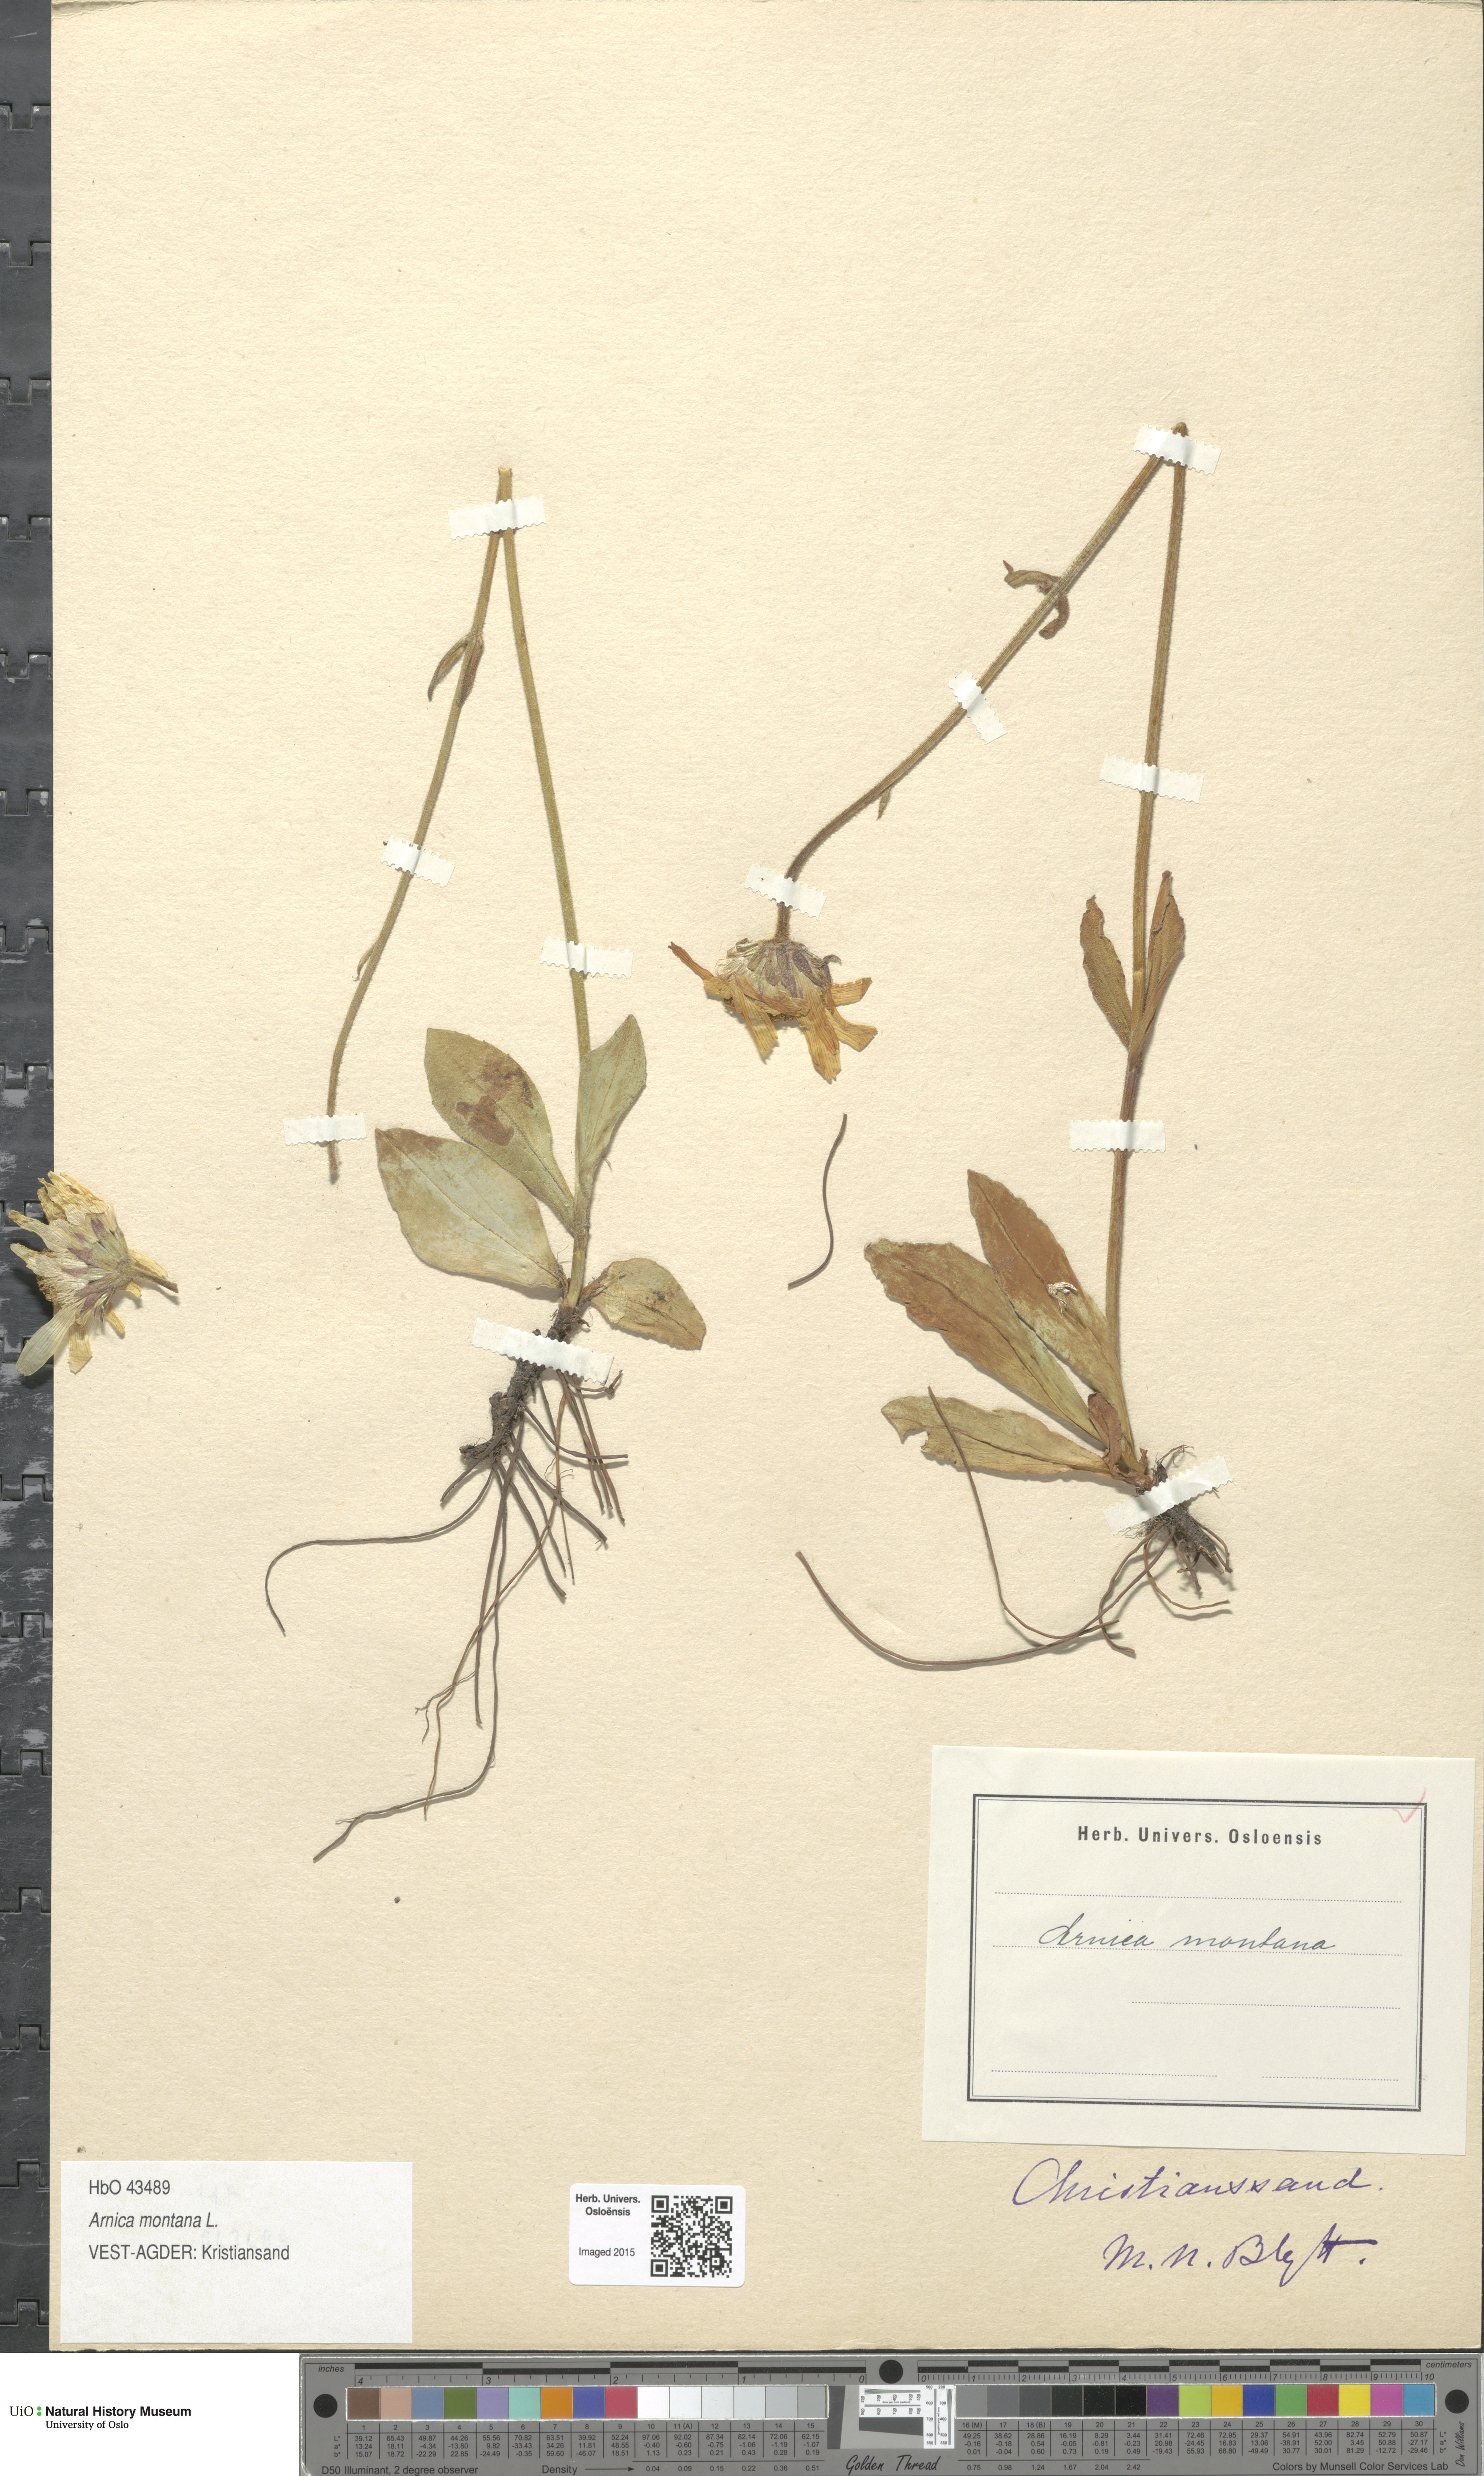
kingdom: Plantae
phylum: Tracheophyta
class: Magnoliopsida
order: Asterales
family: Asteraceae
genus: Arnica
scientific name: Arnica montana
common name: Leopard's bane
